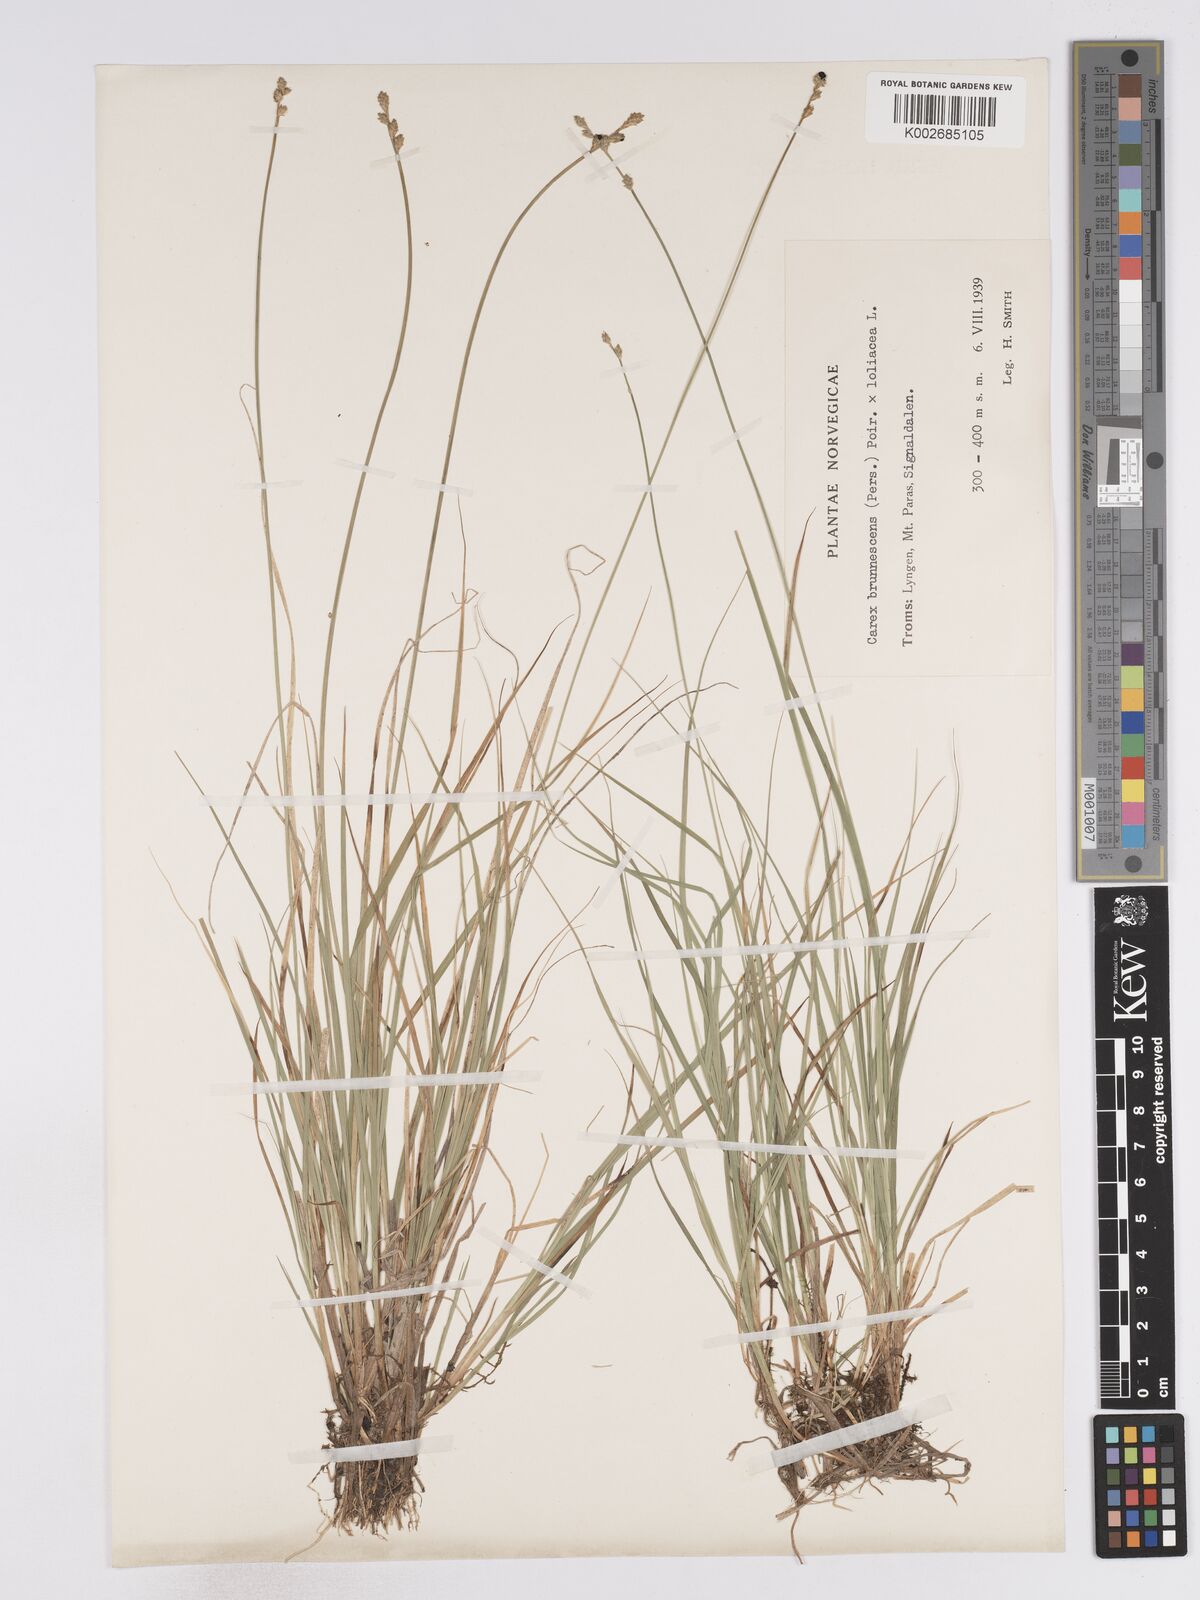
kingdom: Plantae
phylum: Tracheophyta
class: Liliopsida
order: Poales
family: Cyperaceae
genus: Carex
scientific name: Carex brunnescens
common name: Brown sedge
